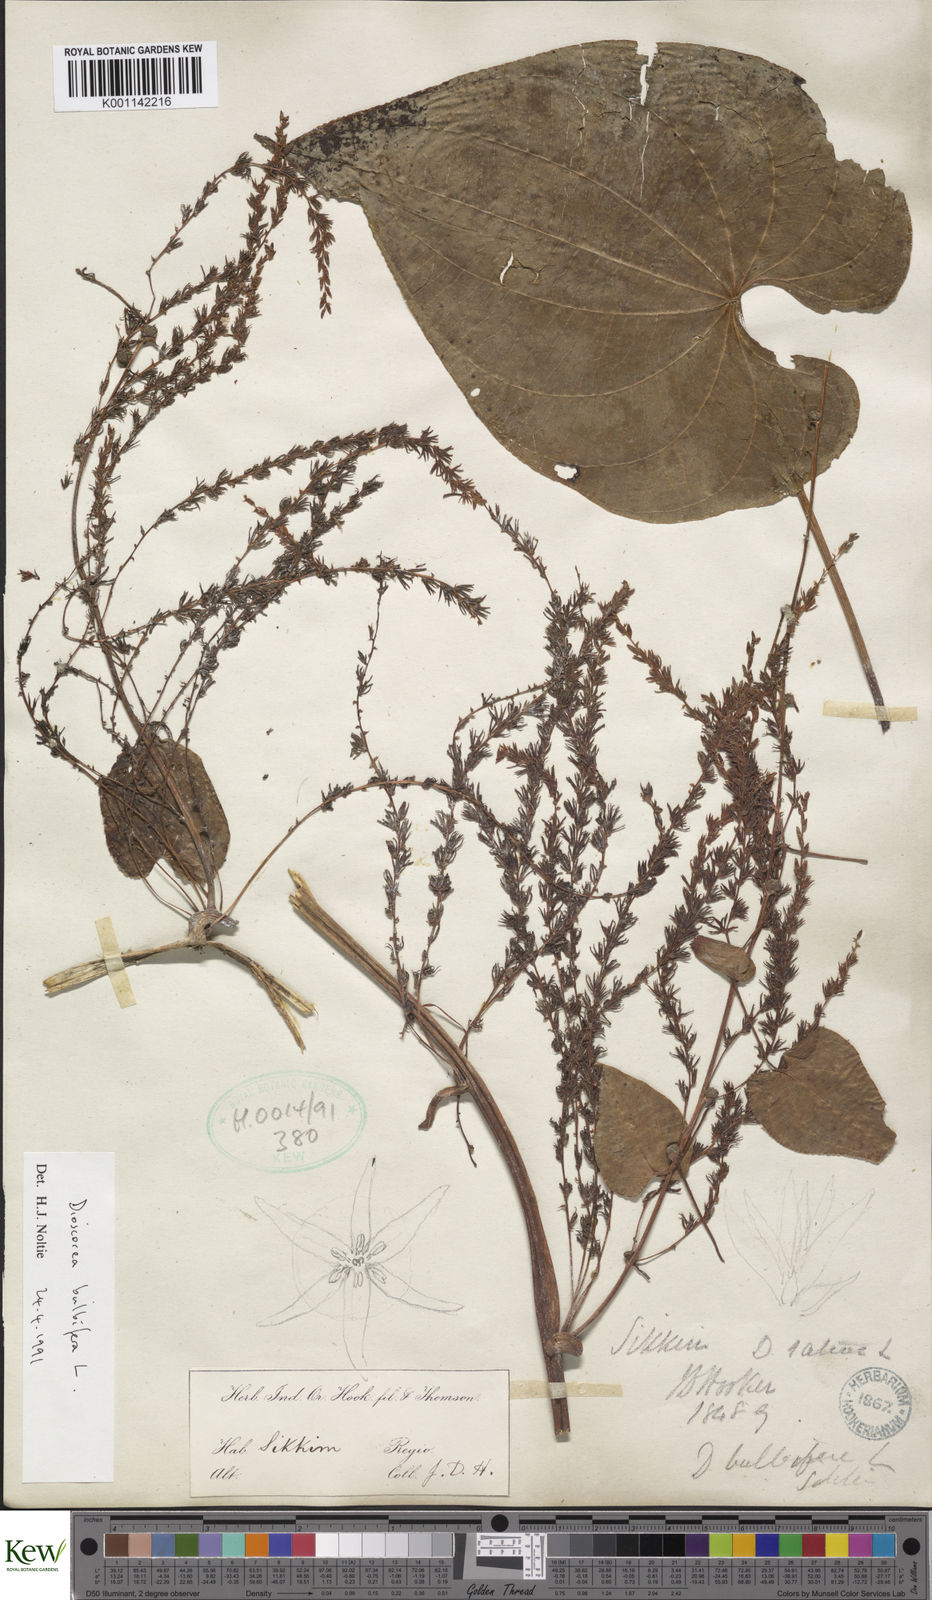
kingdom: Plantae
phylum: Tracheophyta
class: Liliopsida
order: Dioscoreales
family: Dioscoreaceae
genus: Dioscorea
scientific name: Dioscorea bulbifera
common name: Air yam
